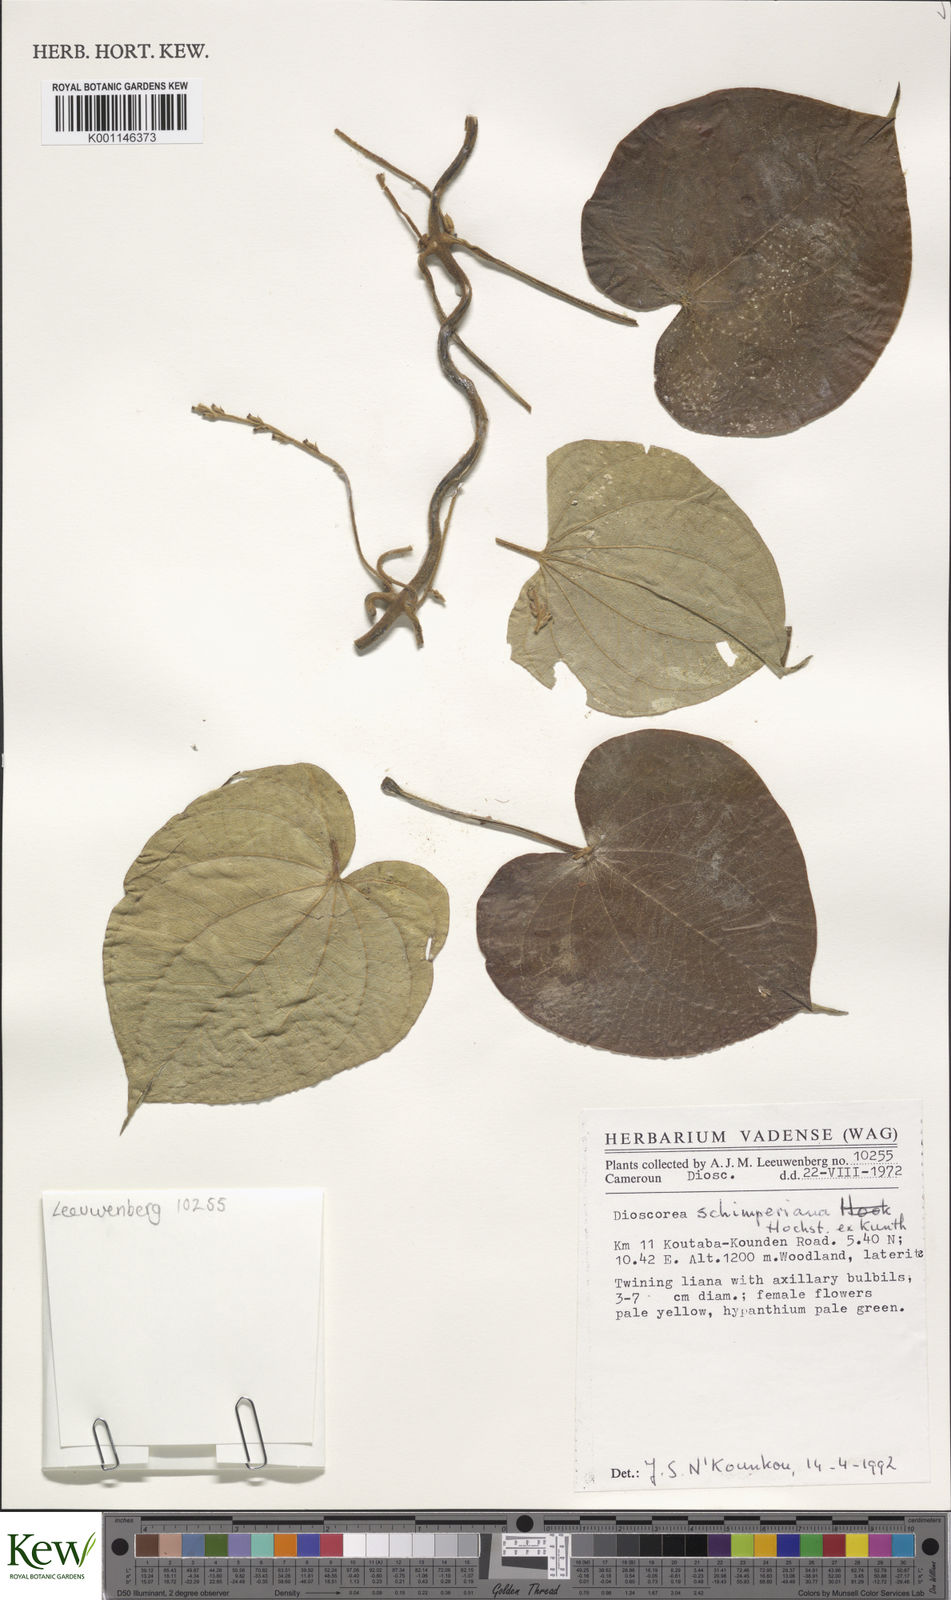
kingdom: Plantae
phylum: Tracheophyta
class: Liliopsida
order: Dioscoreales
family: Dioscoreaceae
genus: Dioscorea
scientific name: Dioscorea schimperiana
